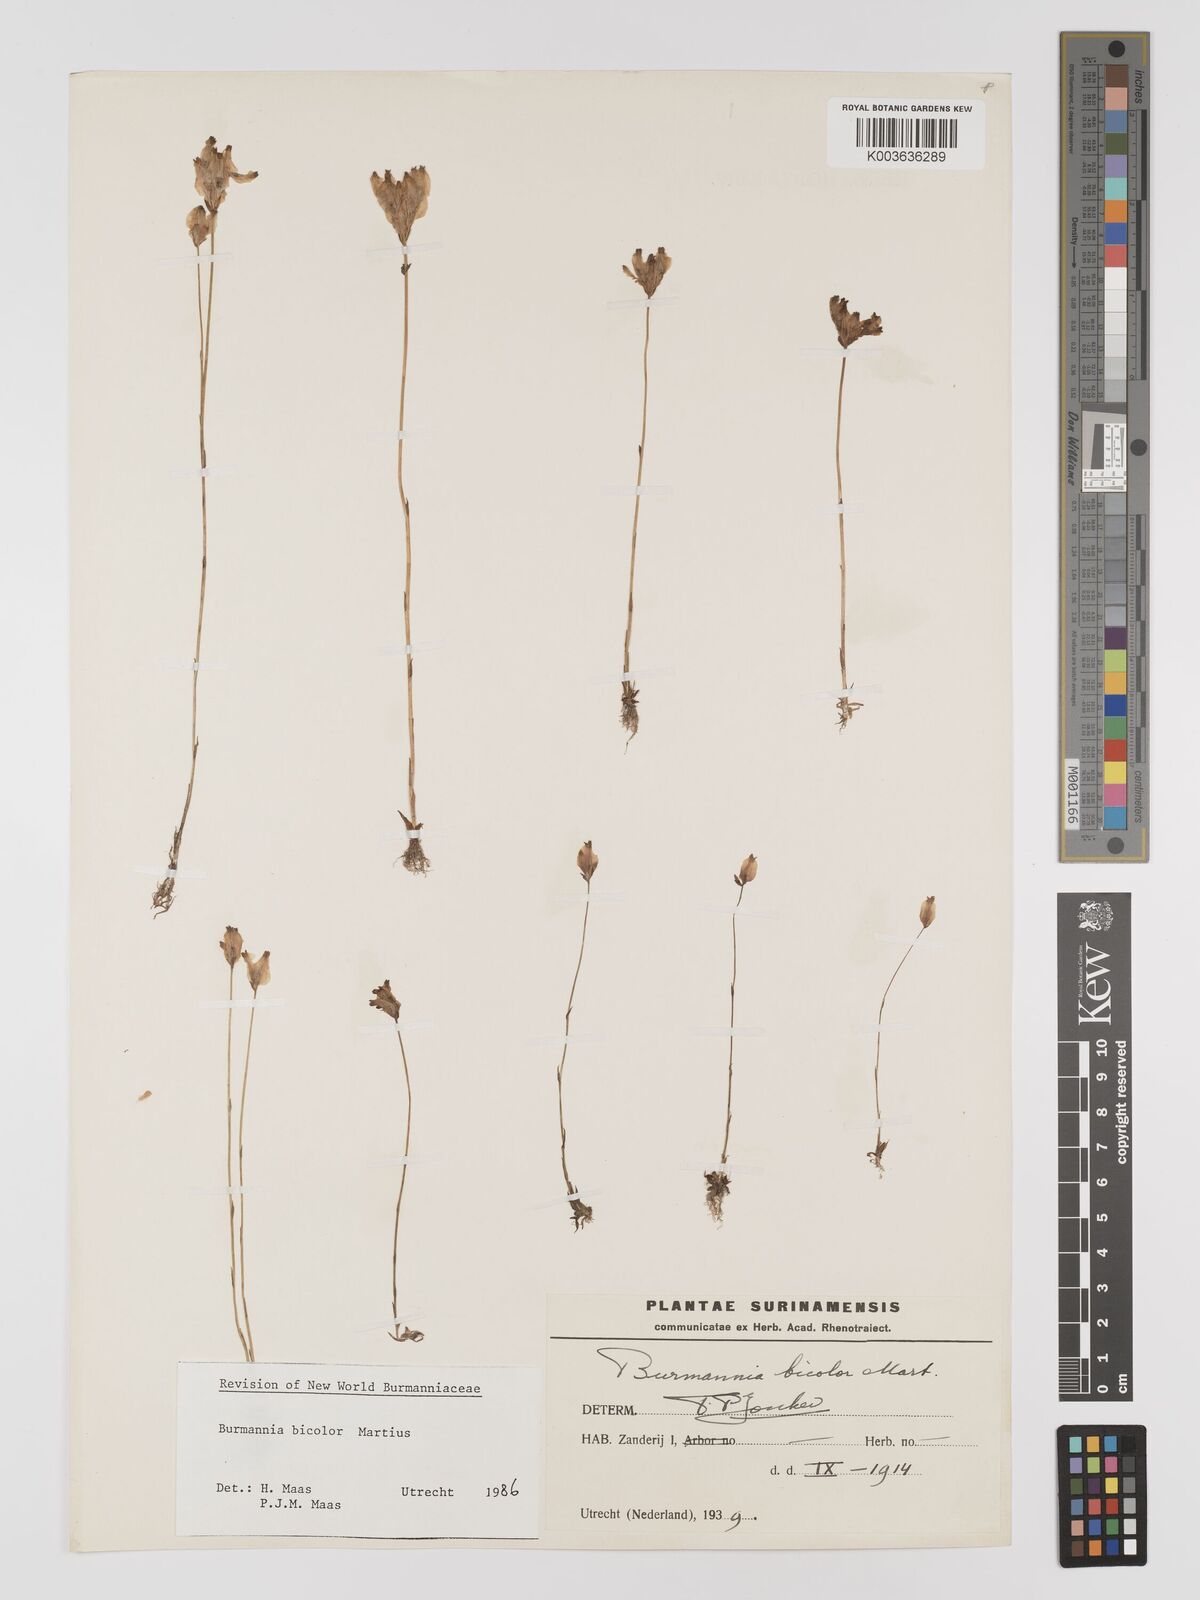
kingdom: Plantae
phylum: Tracheophyta
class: Liliopsida
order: Dioscoreales
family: Burmanniaceae
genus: Burmannia
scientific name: Burmannia bicolor
